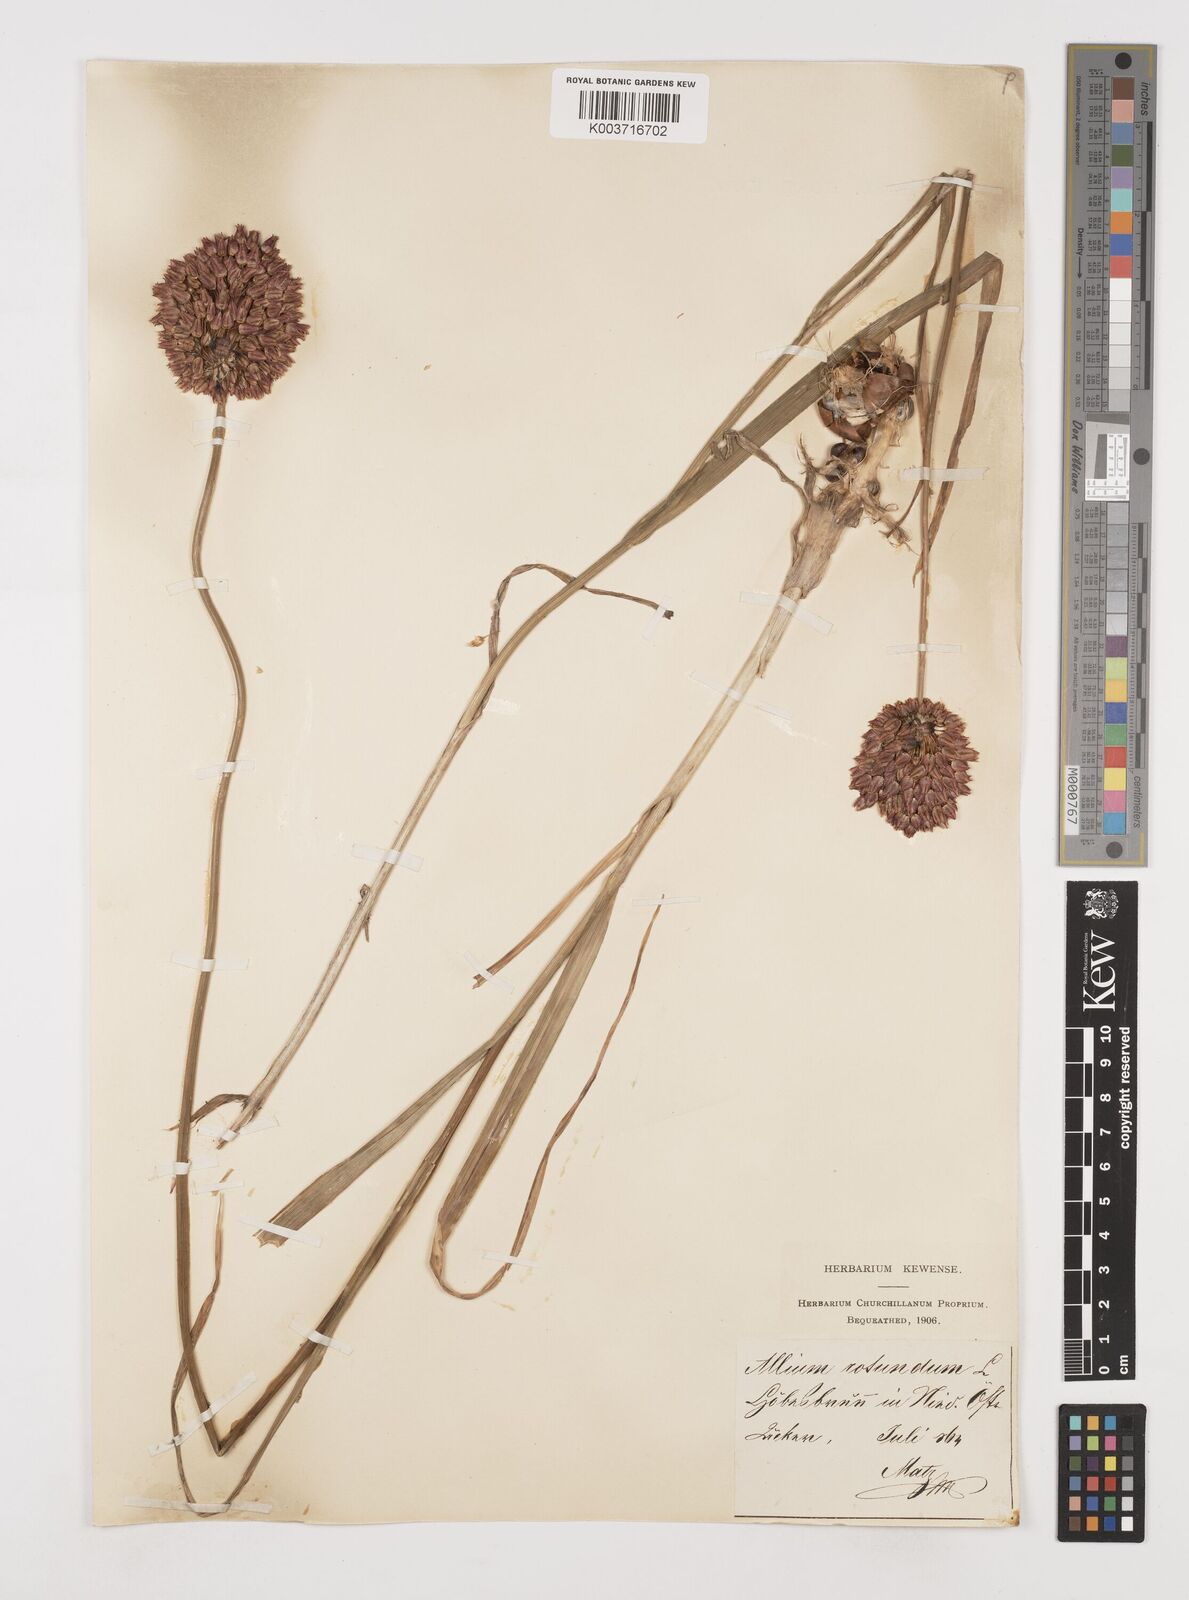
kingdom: Plantae
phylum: Tracheophyta
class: Liliopsida
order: Asparagales
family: Amaryllidaceae
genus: Allium
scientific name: Allium rotundum
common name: Sand leek
